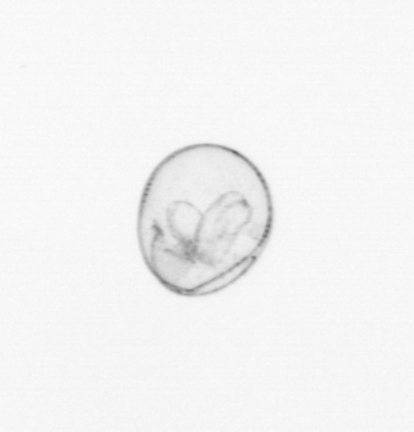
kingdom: Chromista
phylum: Myzozoa
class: Dinophyceae
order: Noctilucales
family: Noctilucaceae
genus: Noctiluca
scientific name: Noctiluca scintillans
